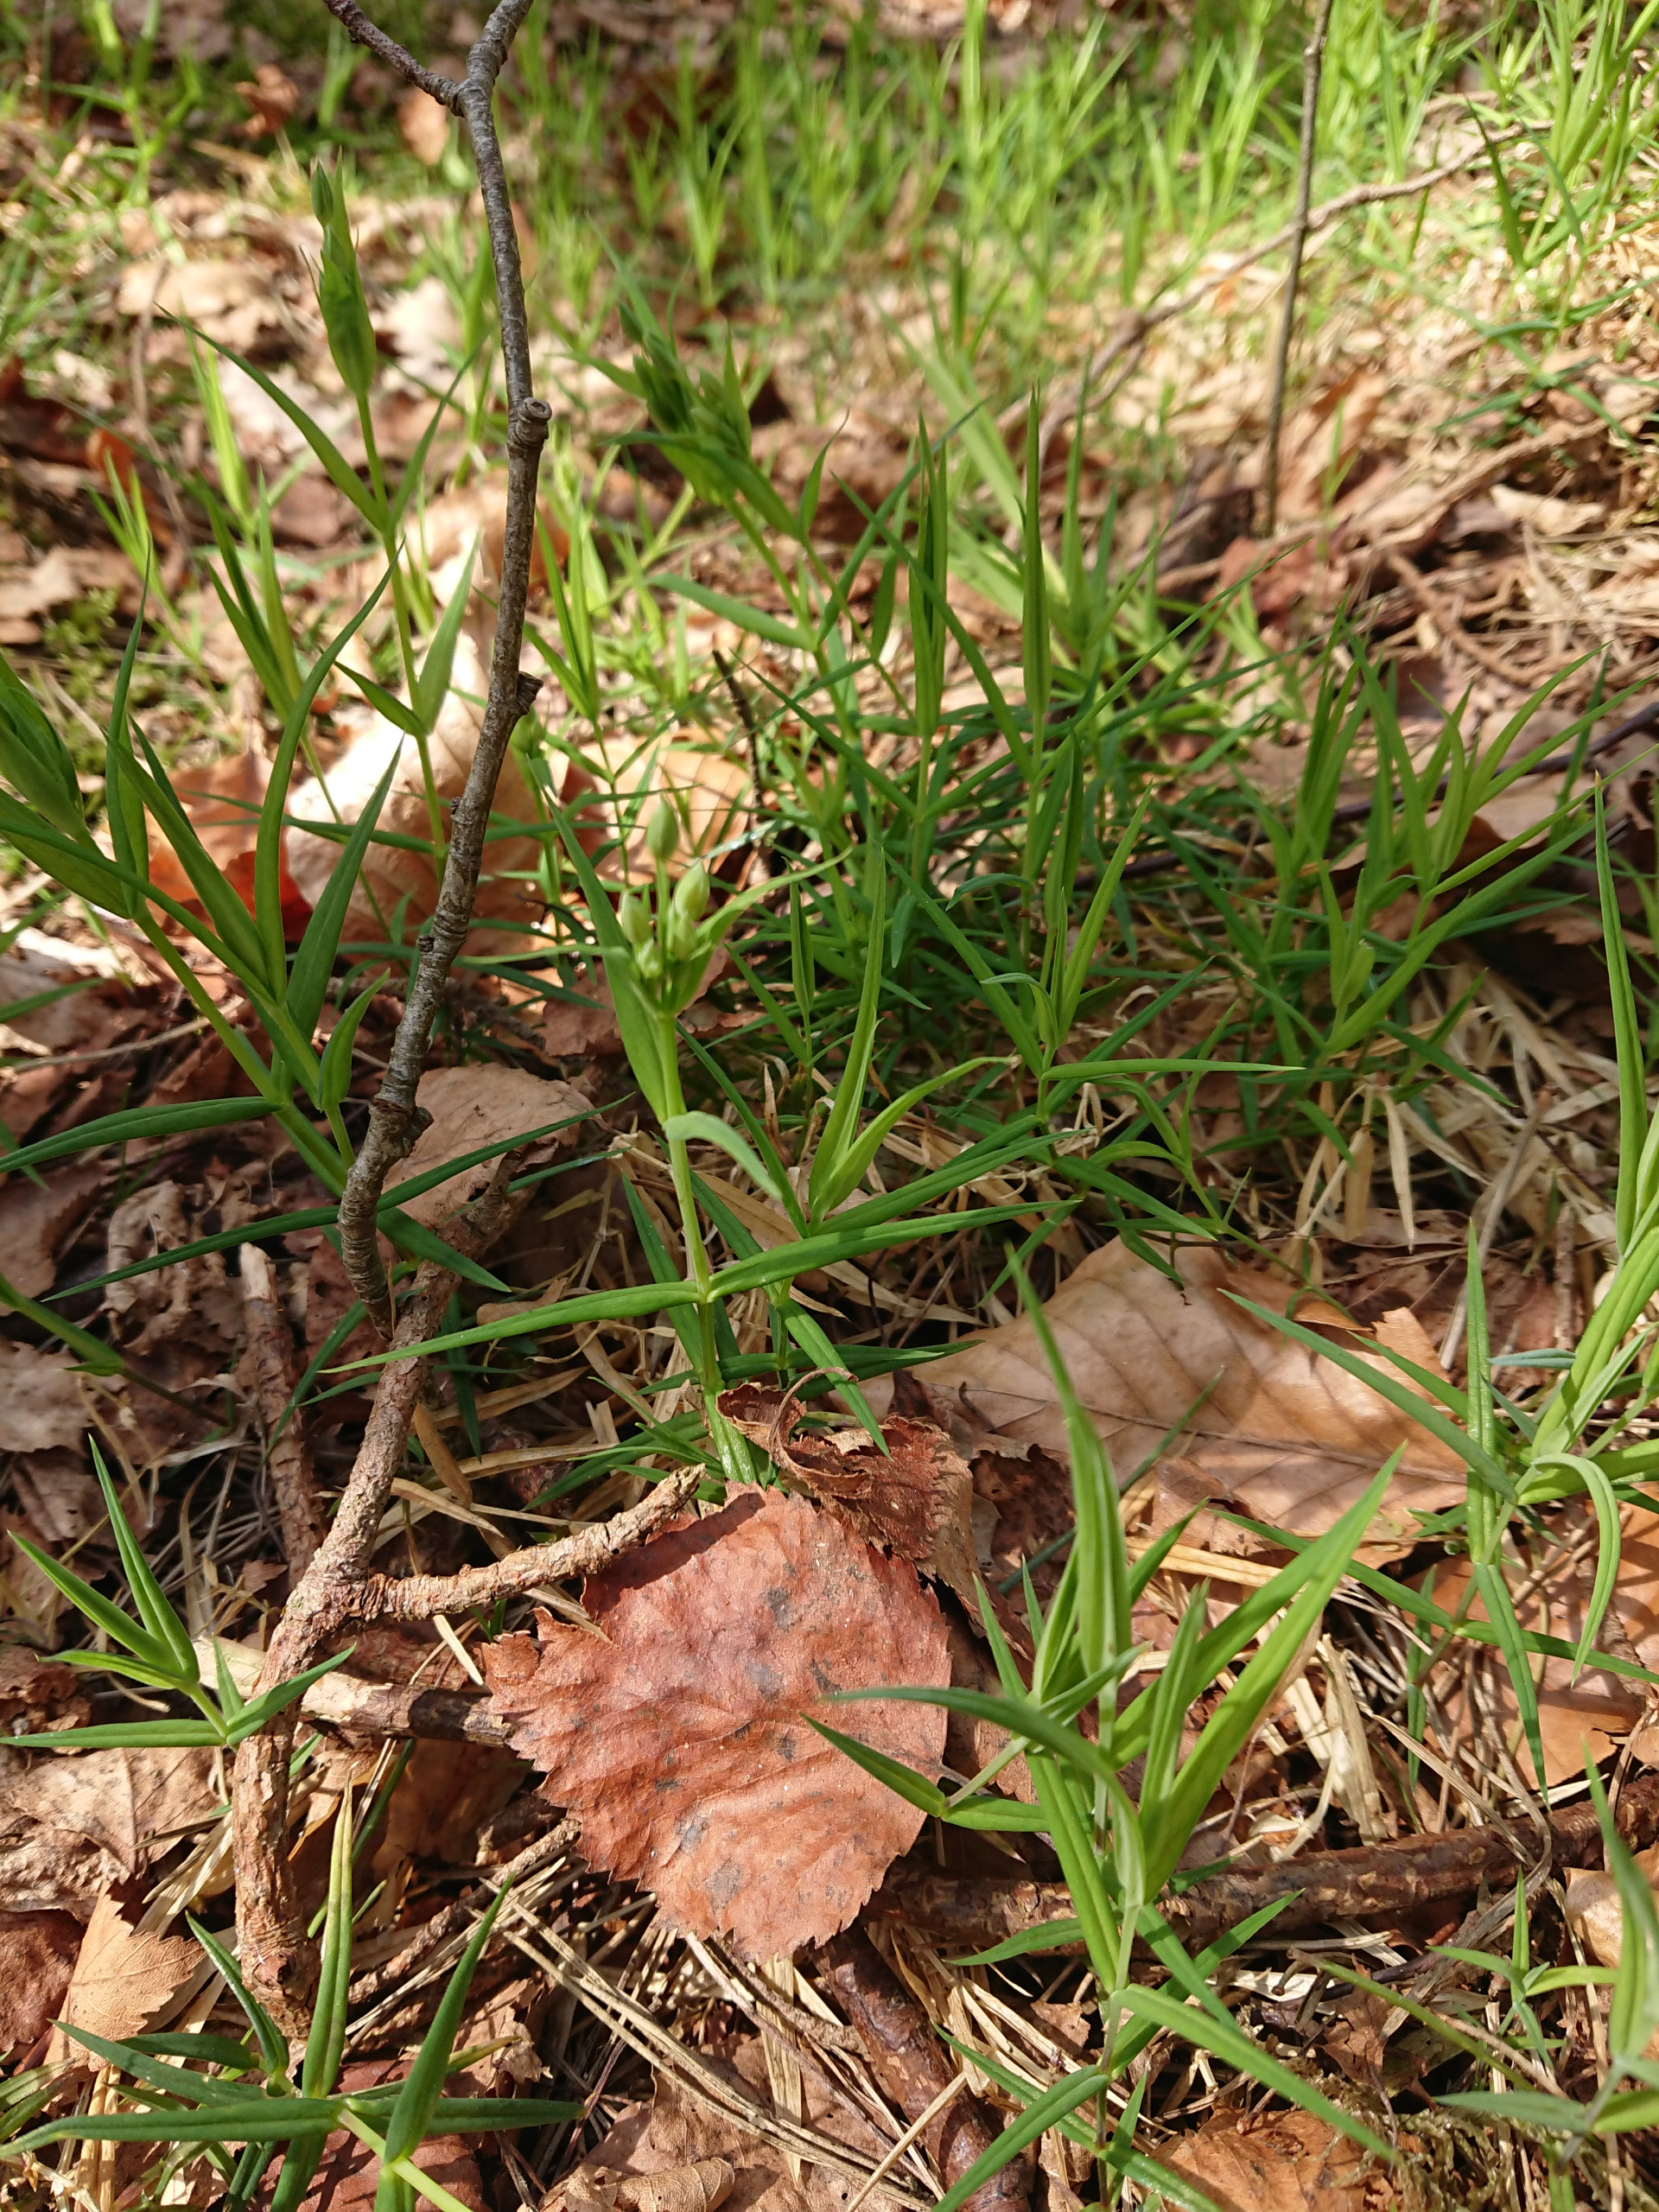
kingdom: Plantae
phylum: Tracheophyta
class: Magnoliopsida
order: Caryophyllales
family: Caryophyllaceae
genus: Rabelera
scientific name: Rabelera holostea
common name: Stor fladstjerne
